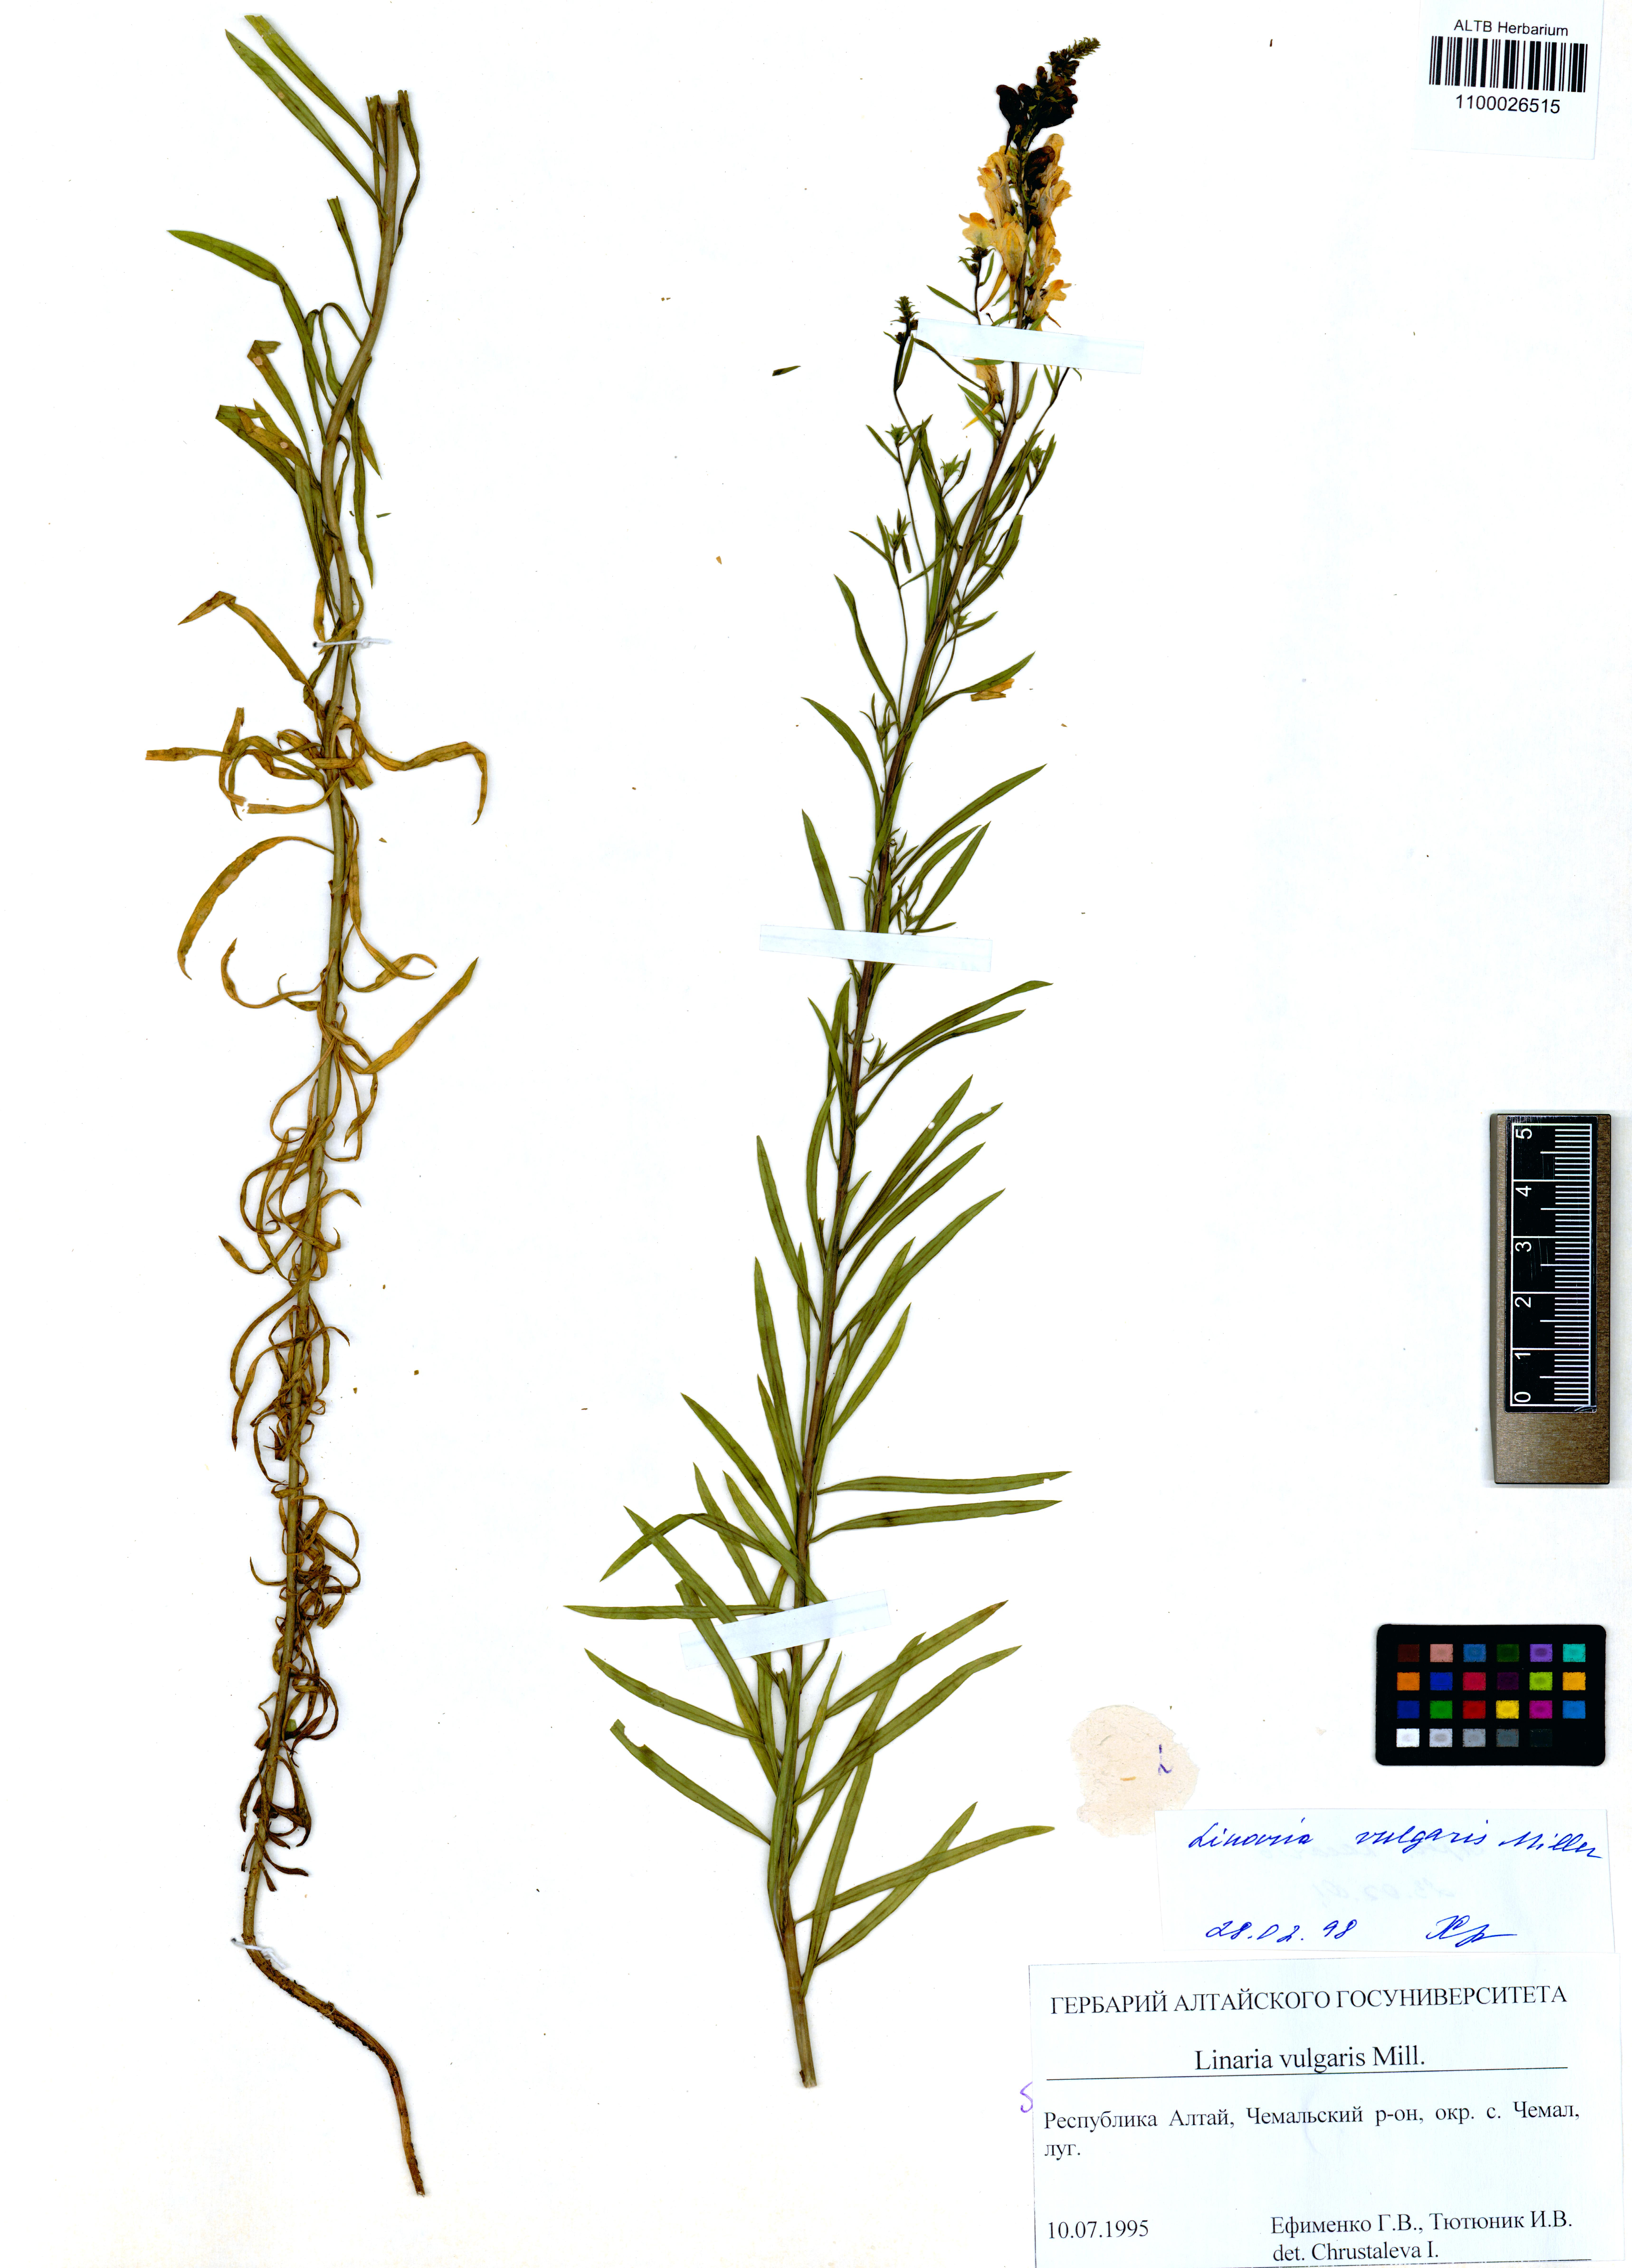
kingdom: Plantae
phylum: Tracheophyta
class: Magnoliopsida
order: Lamiales
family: Plantaginaceae
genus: Linaria
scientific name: Linaria vulgaris
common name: Butter and eggs
